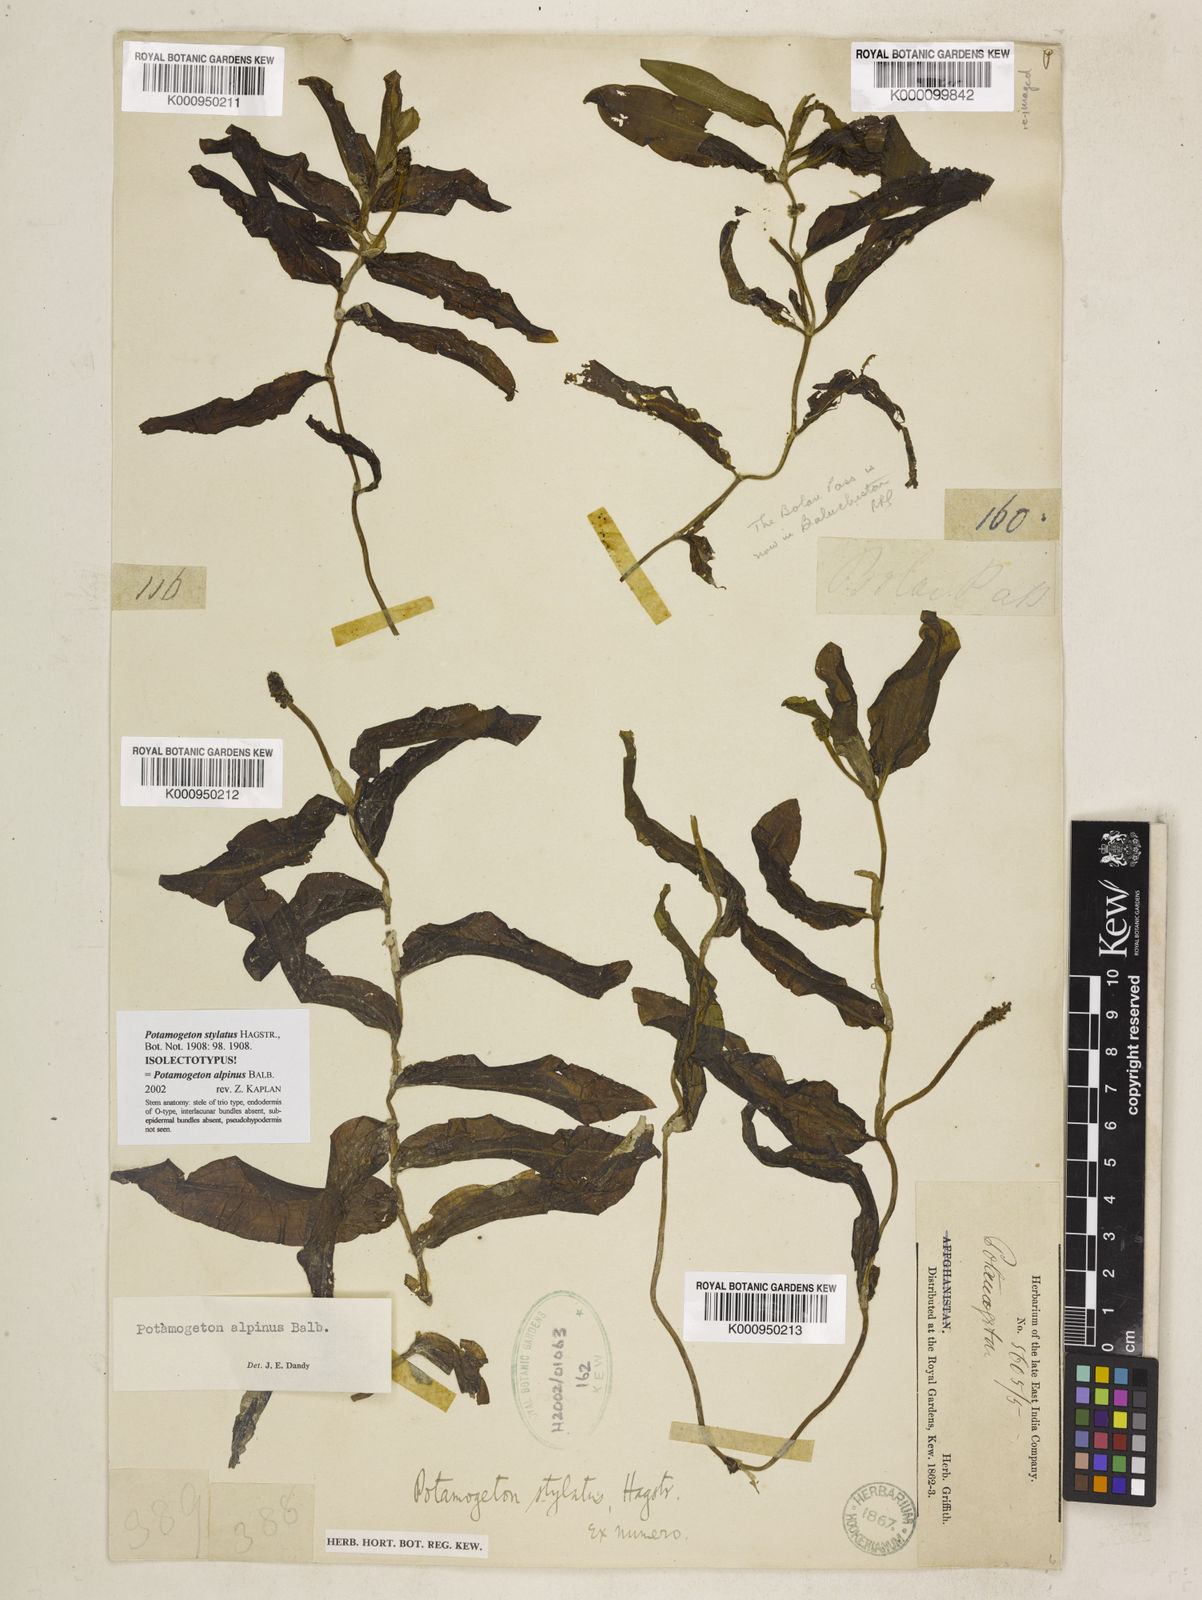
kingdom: Plantae
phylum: Tracheophyta
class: Liliopsida
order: Alismatales
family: Potamogetonaceae
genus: Potamogeton
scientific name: Potamogeton alpinus
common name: Red pondweed
